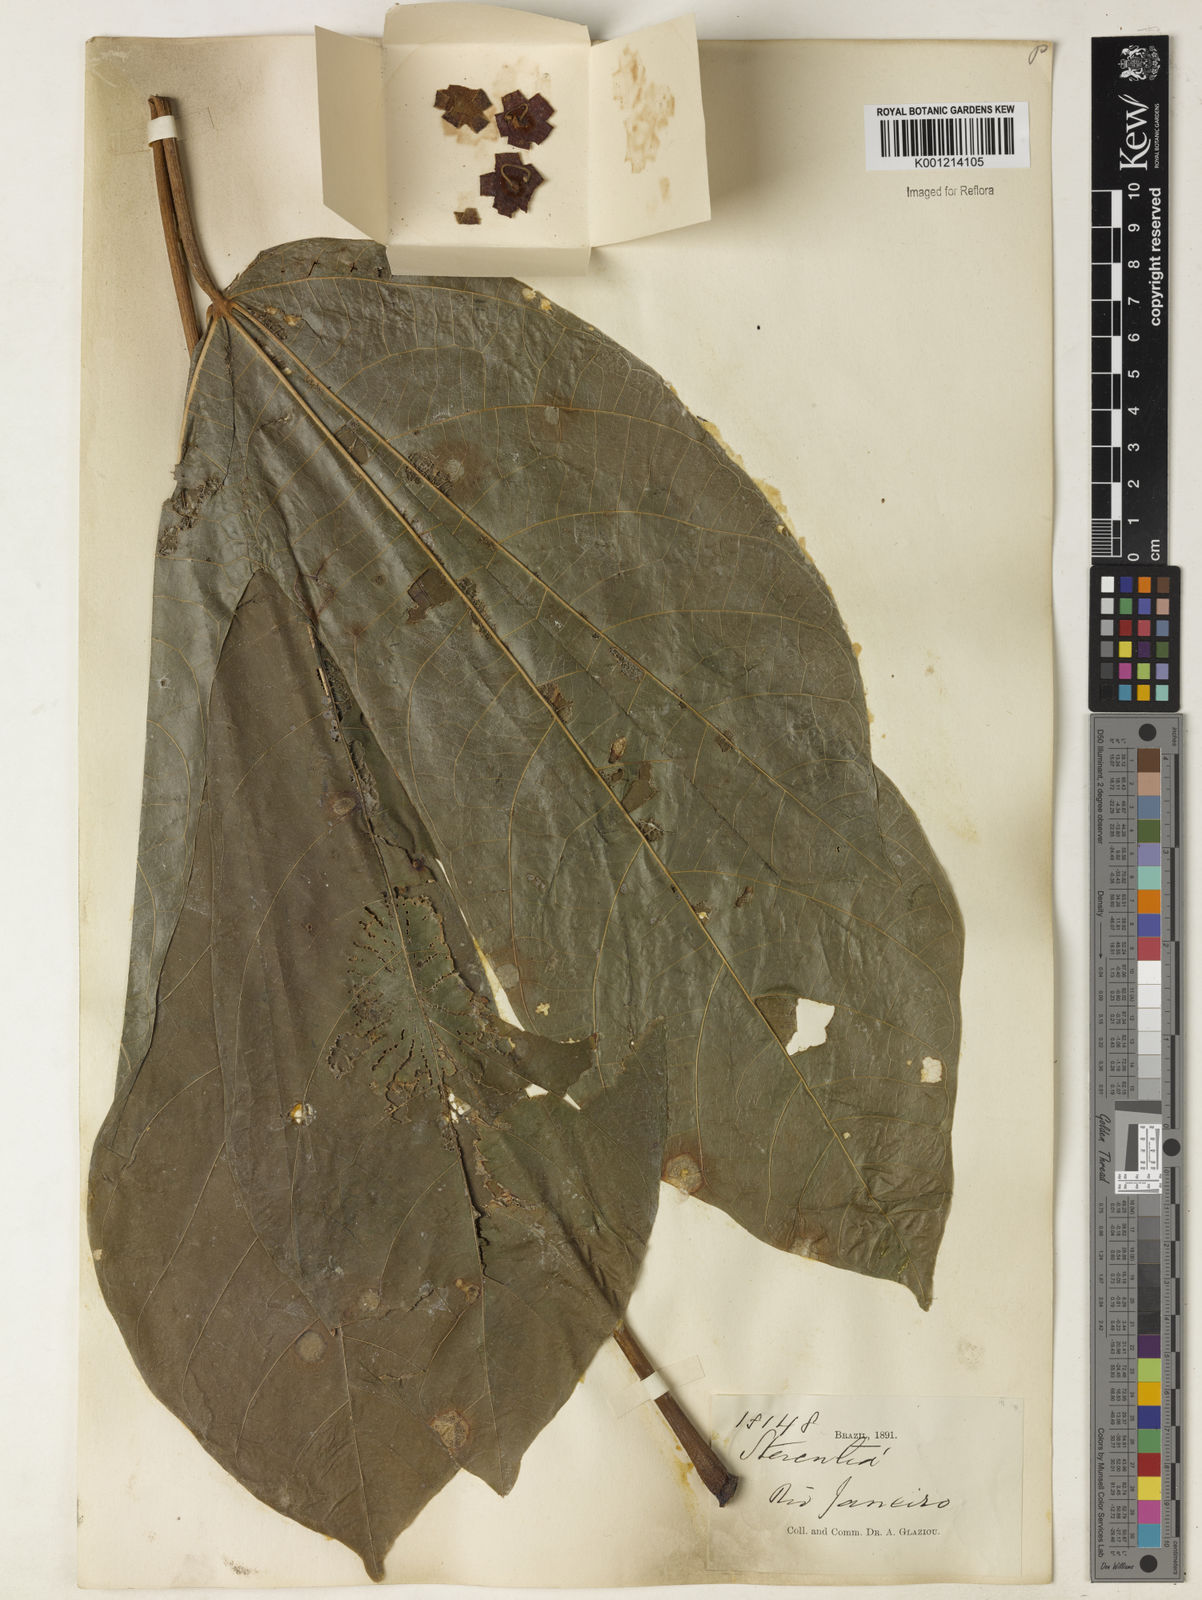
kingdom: Plantae
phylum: Tracheophyta
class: Magnoliopsida
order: Malvales
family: Malvaceae
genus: Sterculia
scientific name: Sterculia
